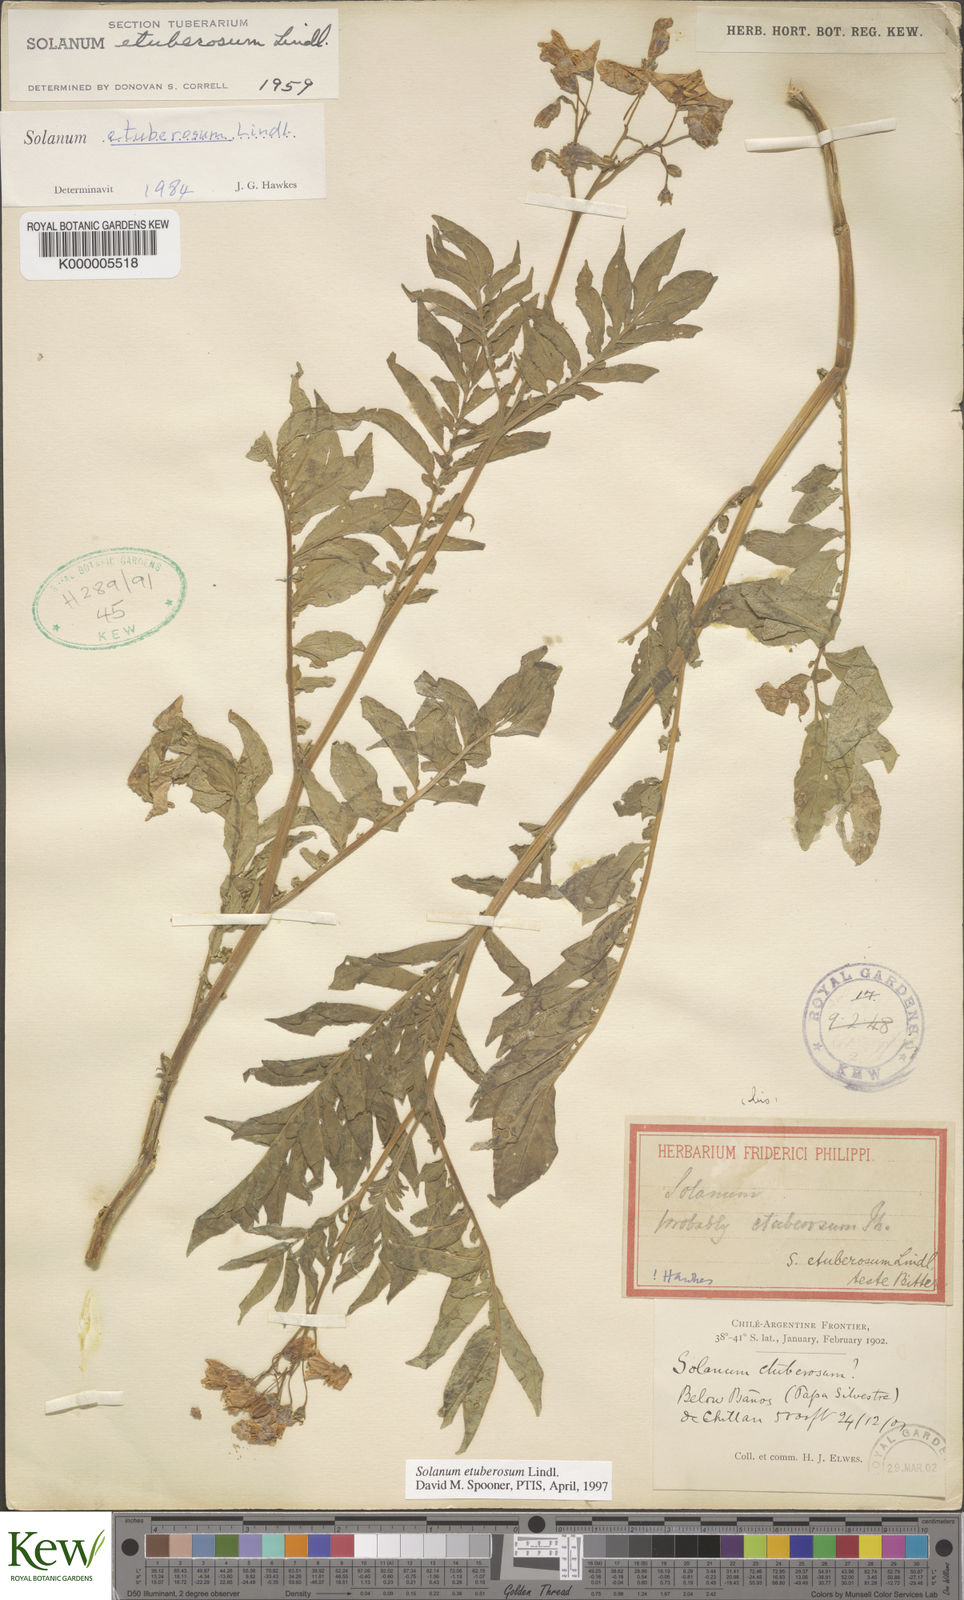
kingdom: Plantae
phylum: Tracheophyta
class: Magnoliopsida
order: Solanales
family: Solanaceae
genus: Solanum
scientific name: Solanum etuberosum
